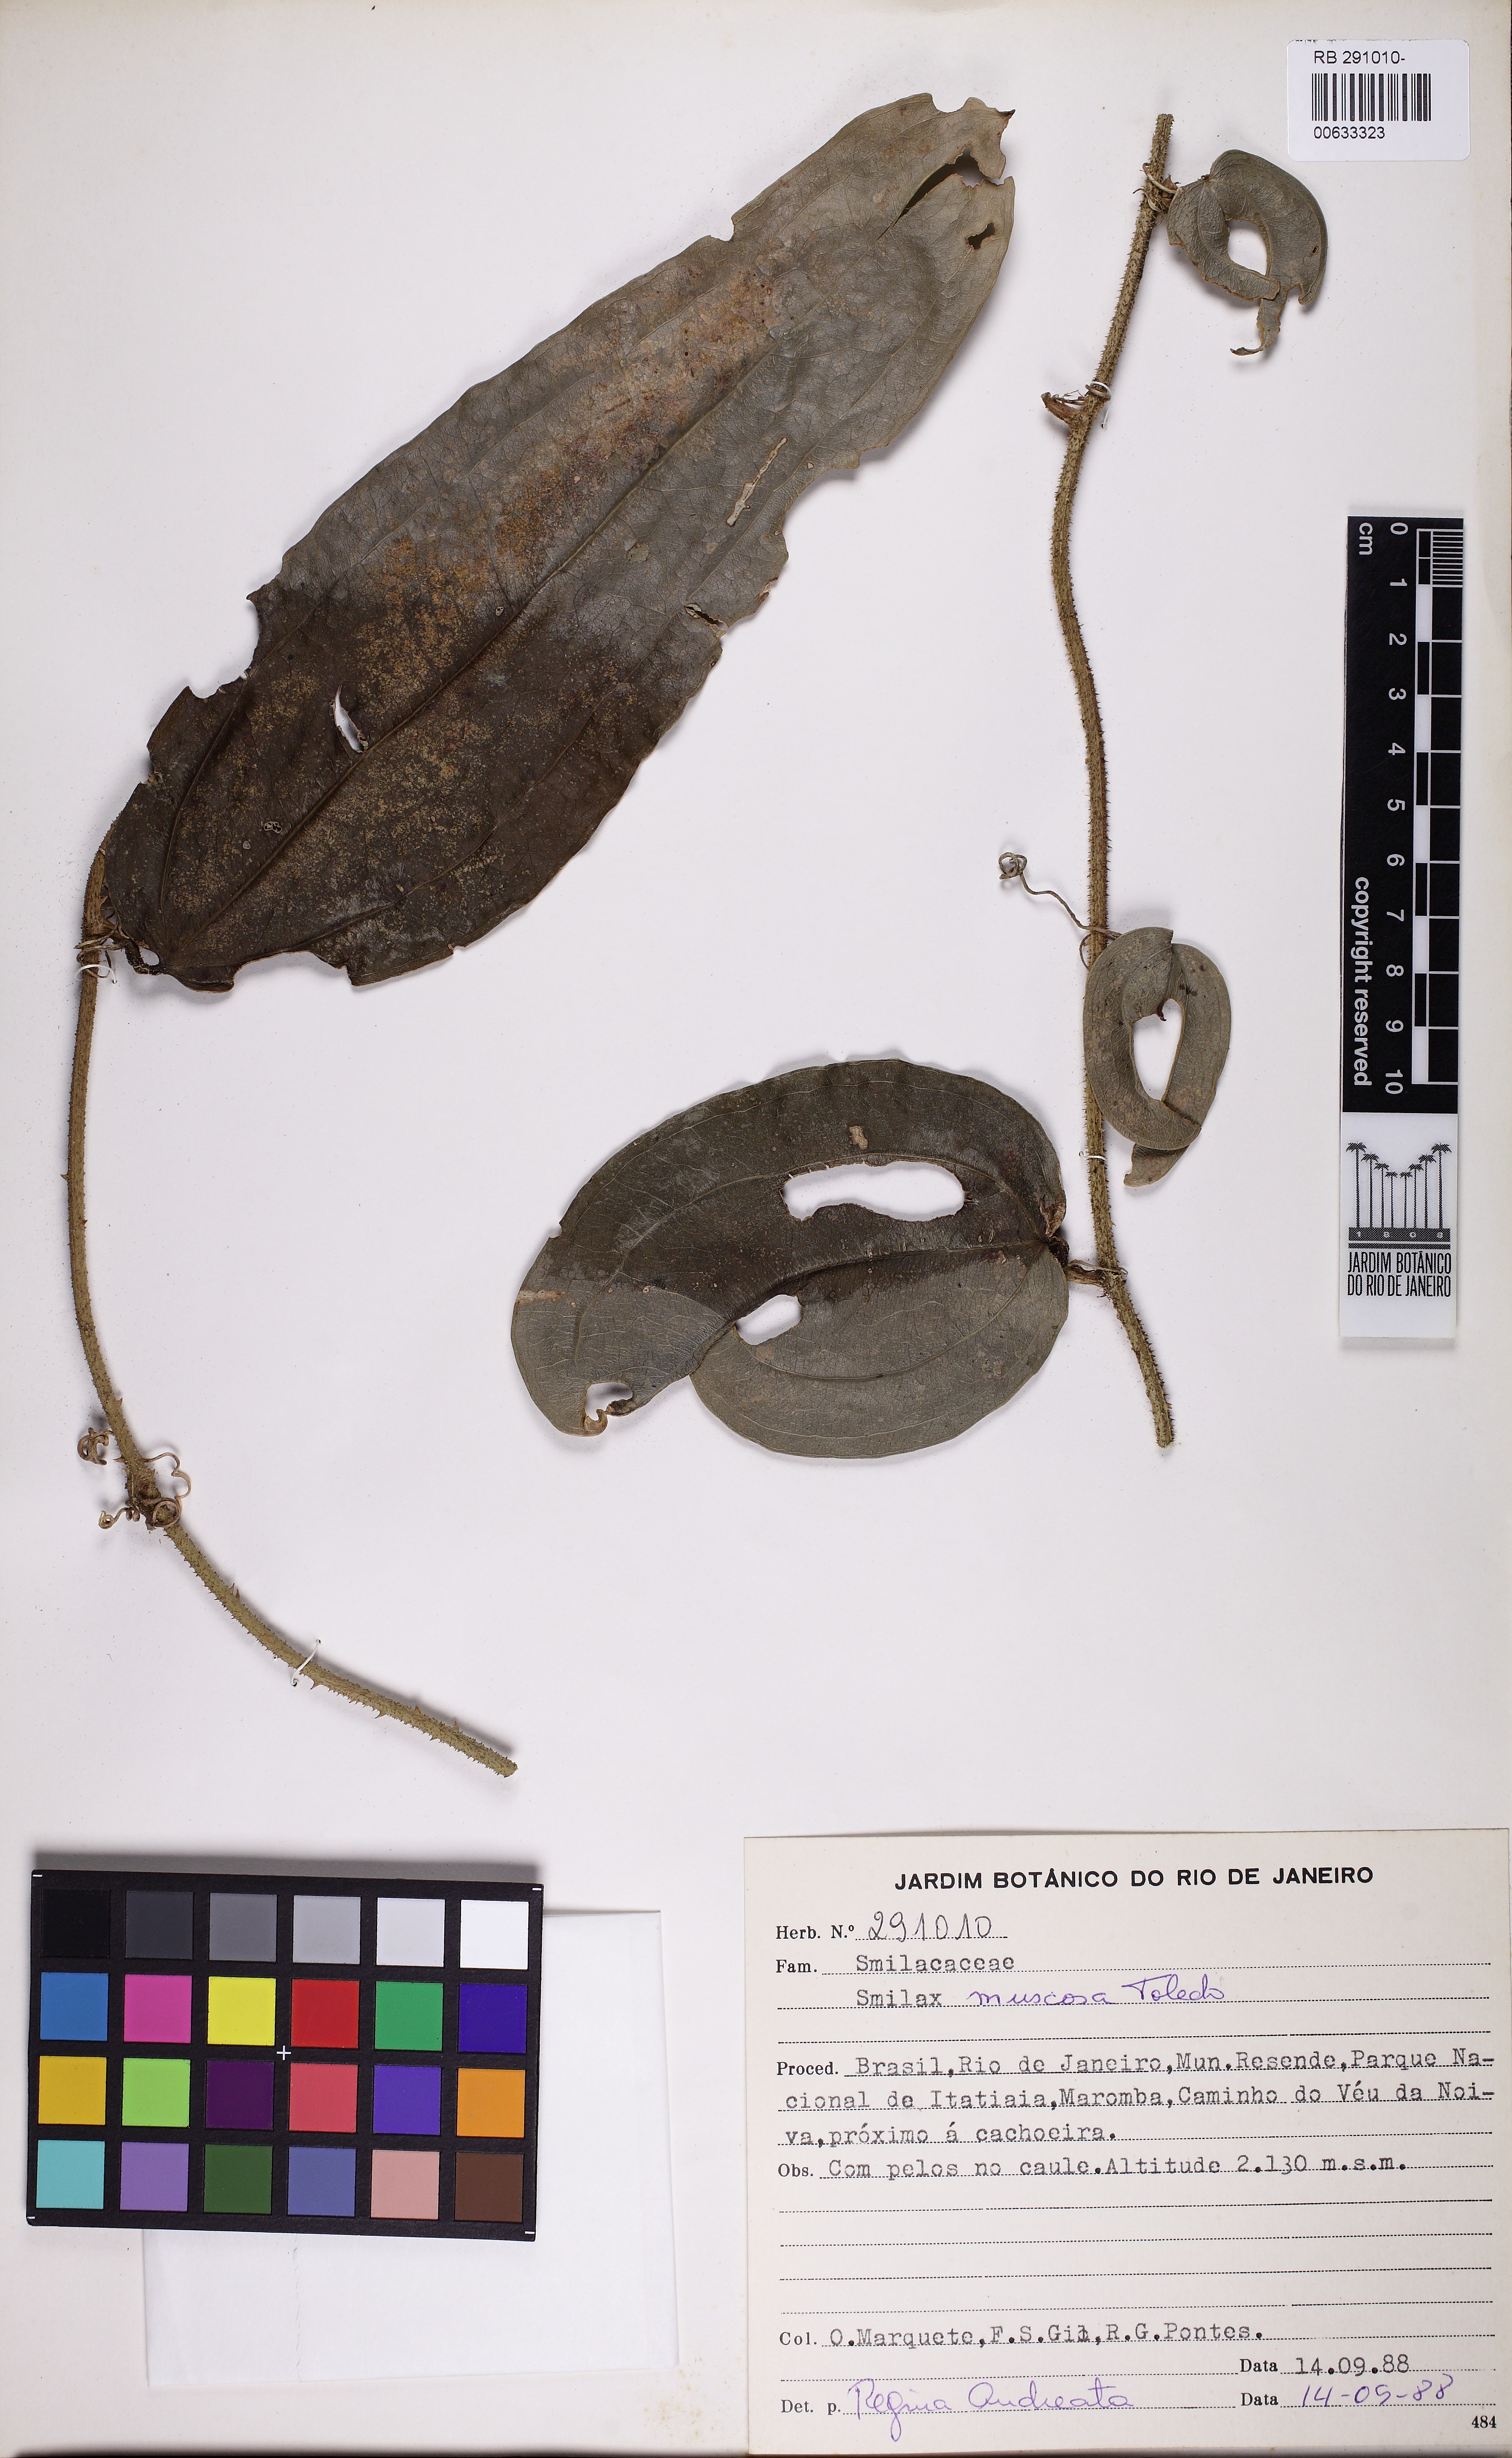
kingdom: Plantae
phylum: Tracheophyta
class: Liliopsida
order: Liliales
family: Smilacaceae
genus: Smilax
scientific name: Smilax muscosa
